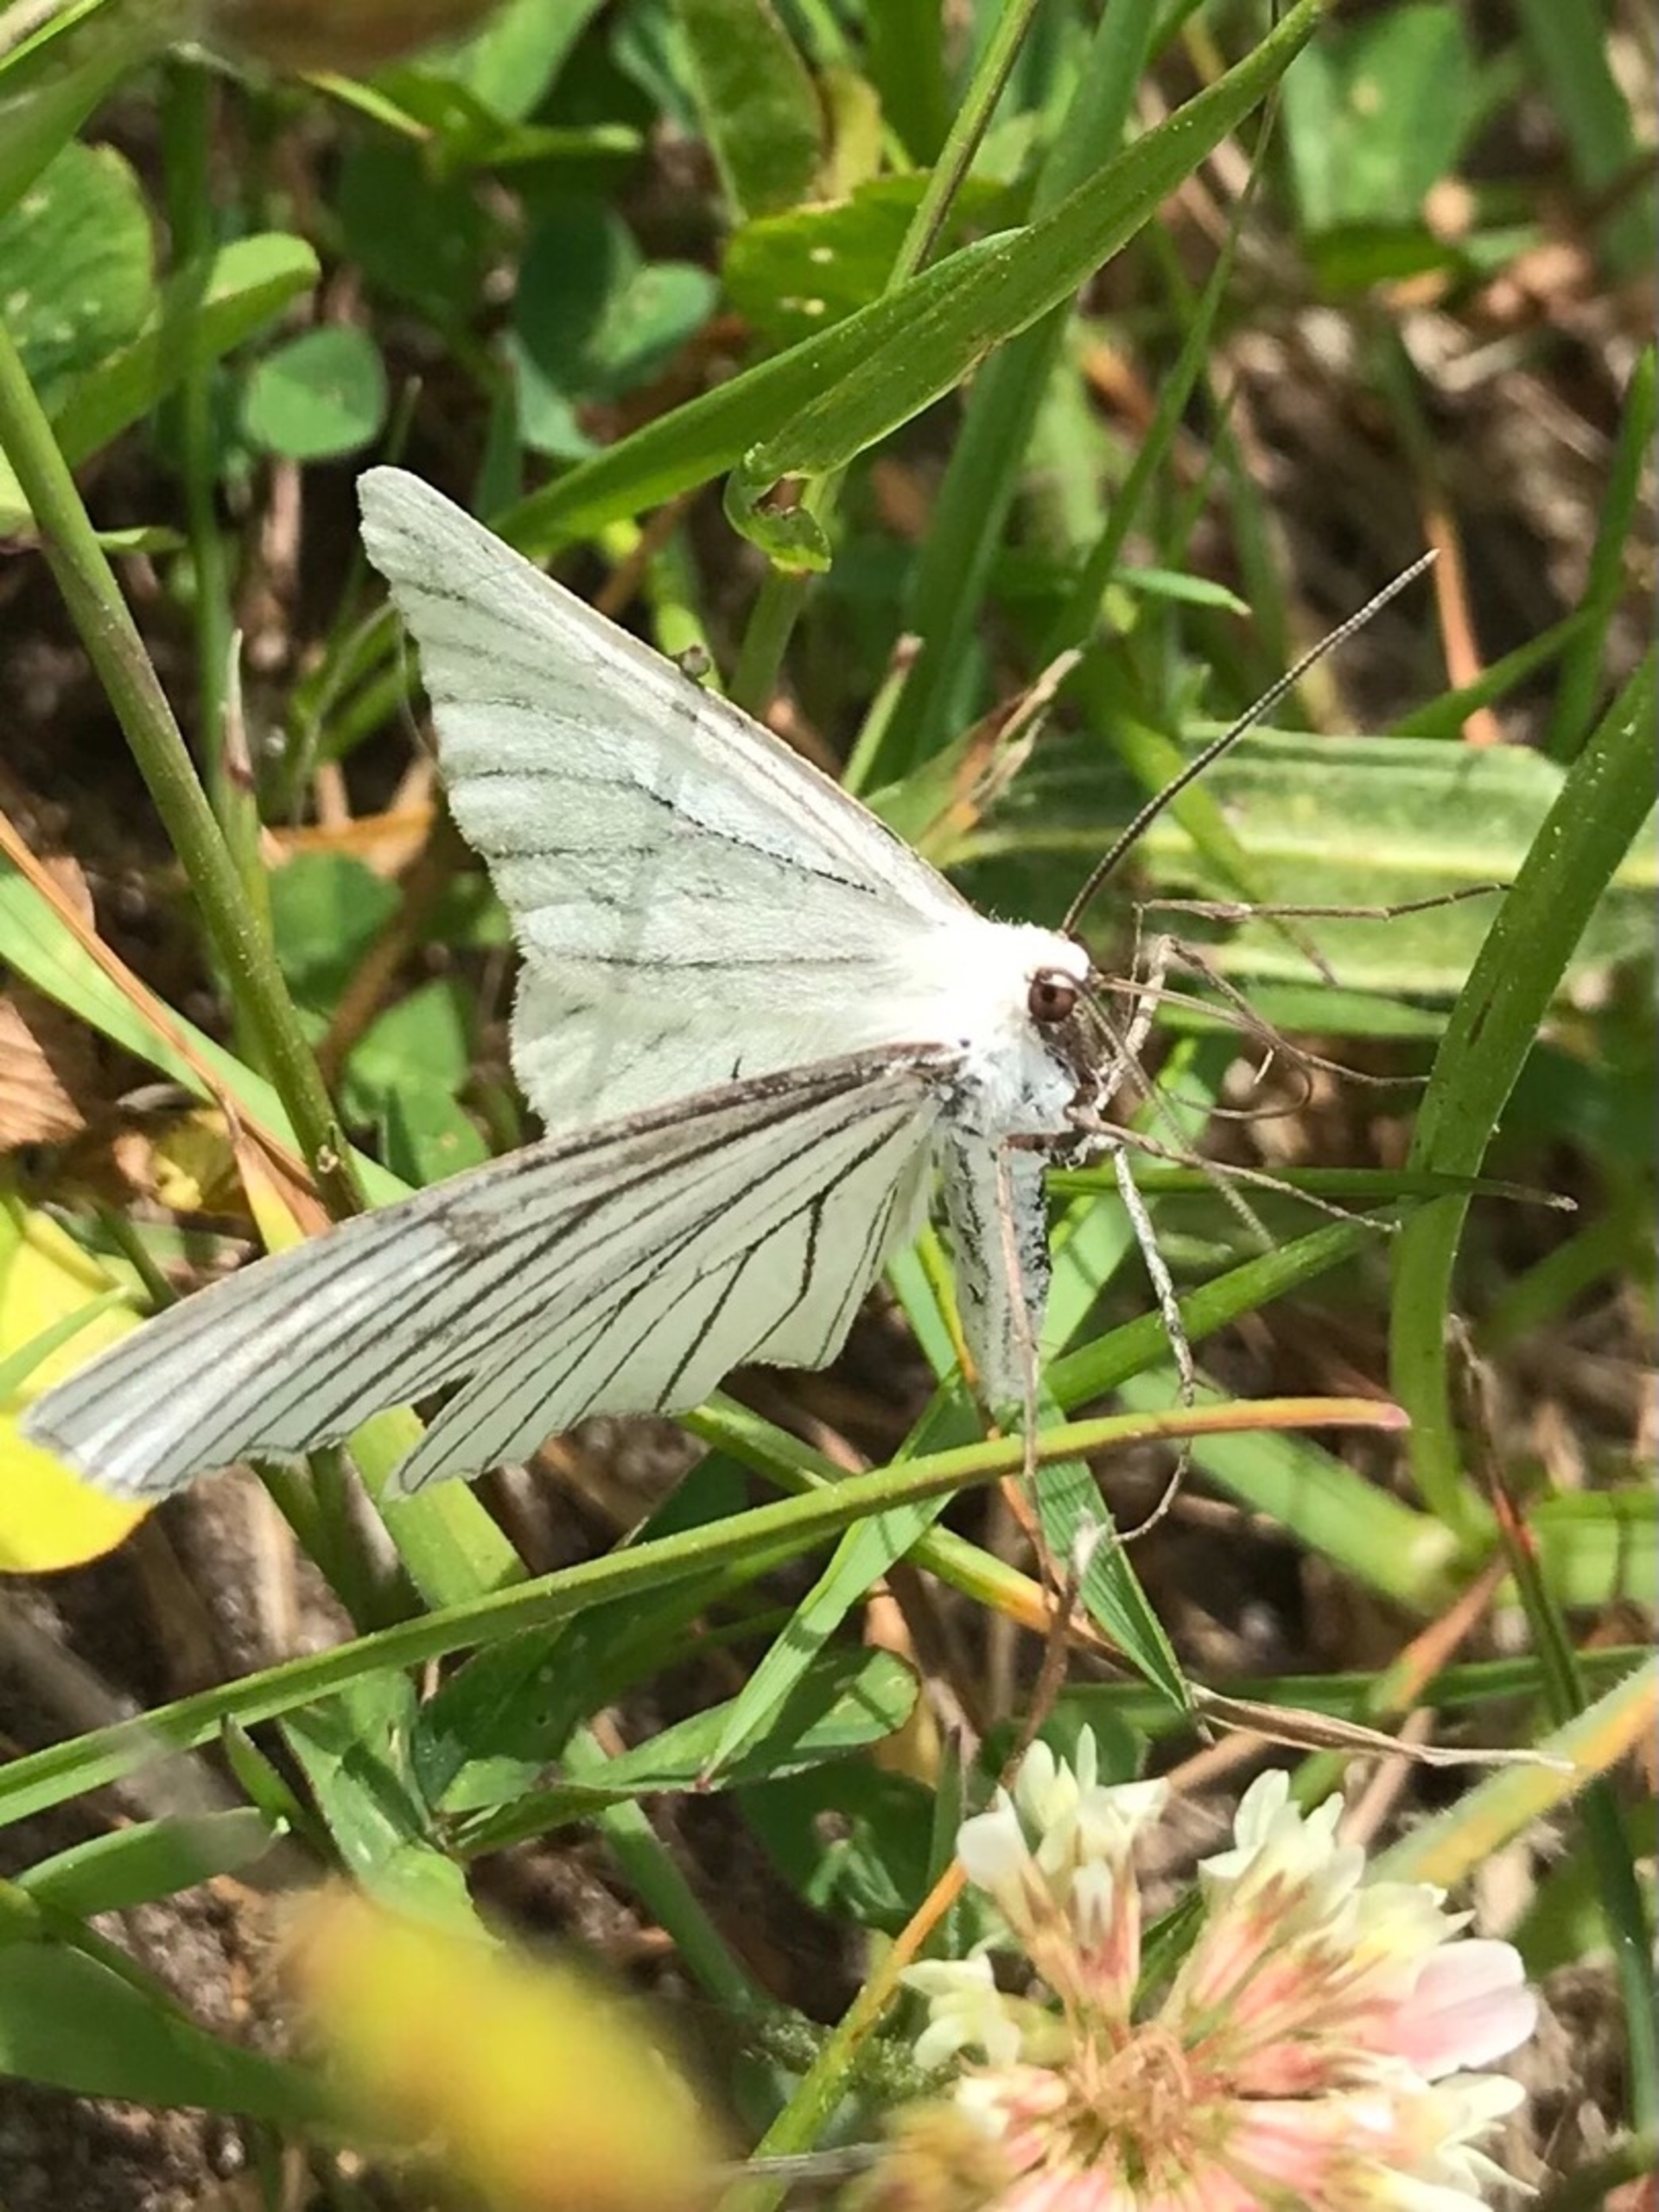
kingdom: Animalia
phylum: Arthropoda
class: Insecta
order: Lepidoptera
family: Geometridae
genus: Siona
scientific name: Siona lineata
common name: Hvidvingemåler
